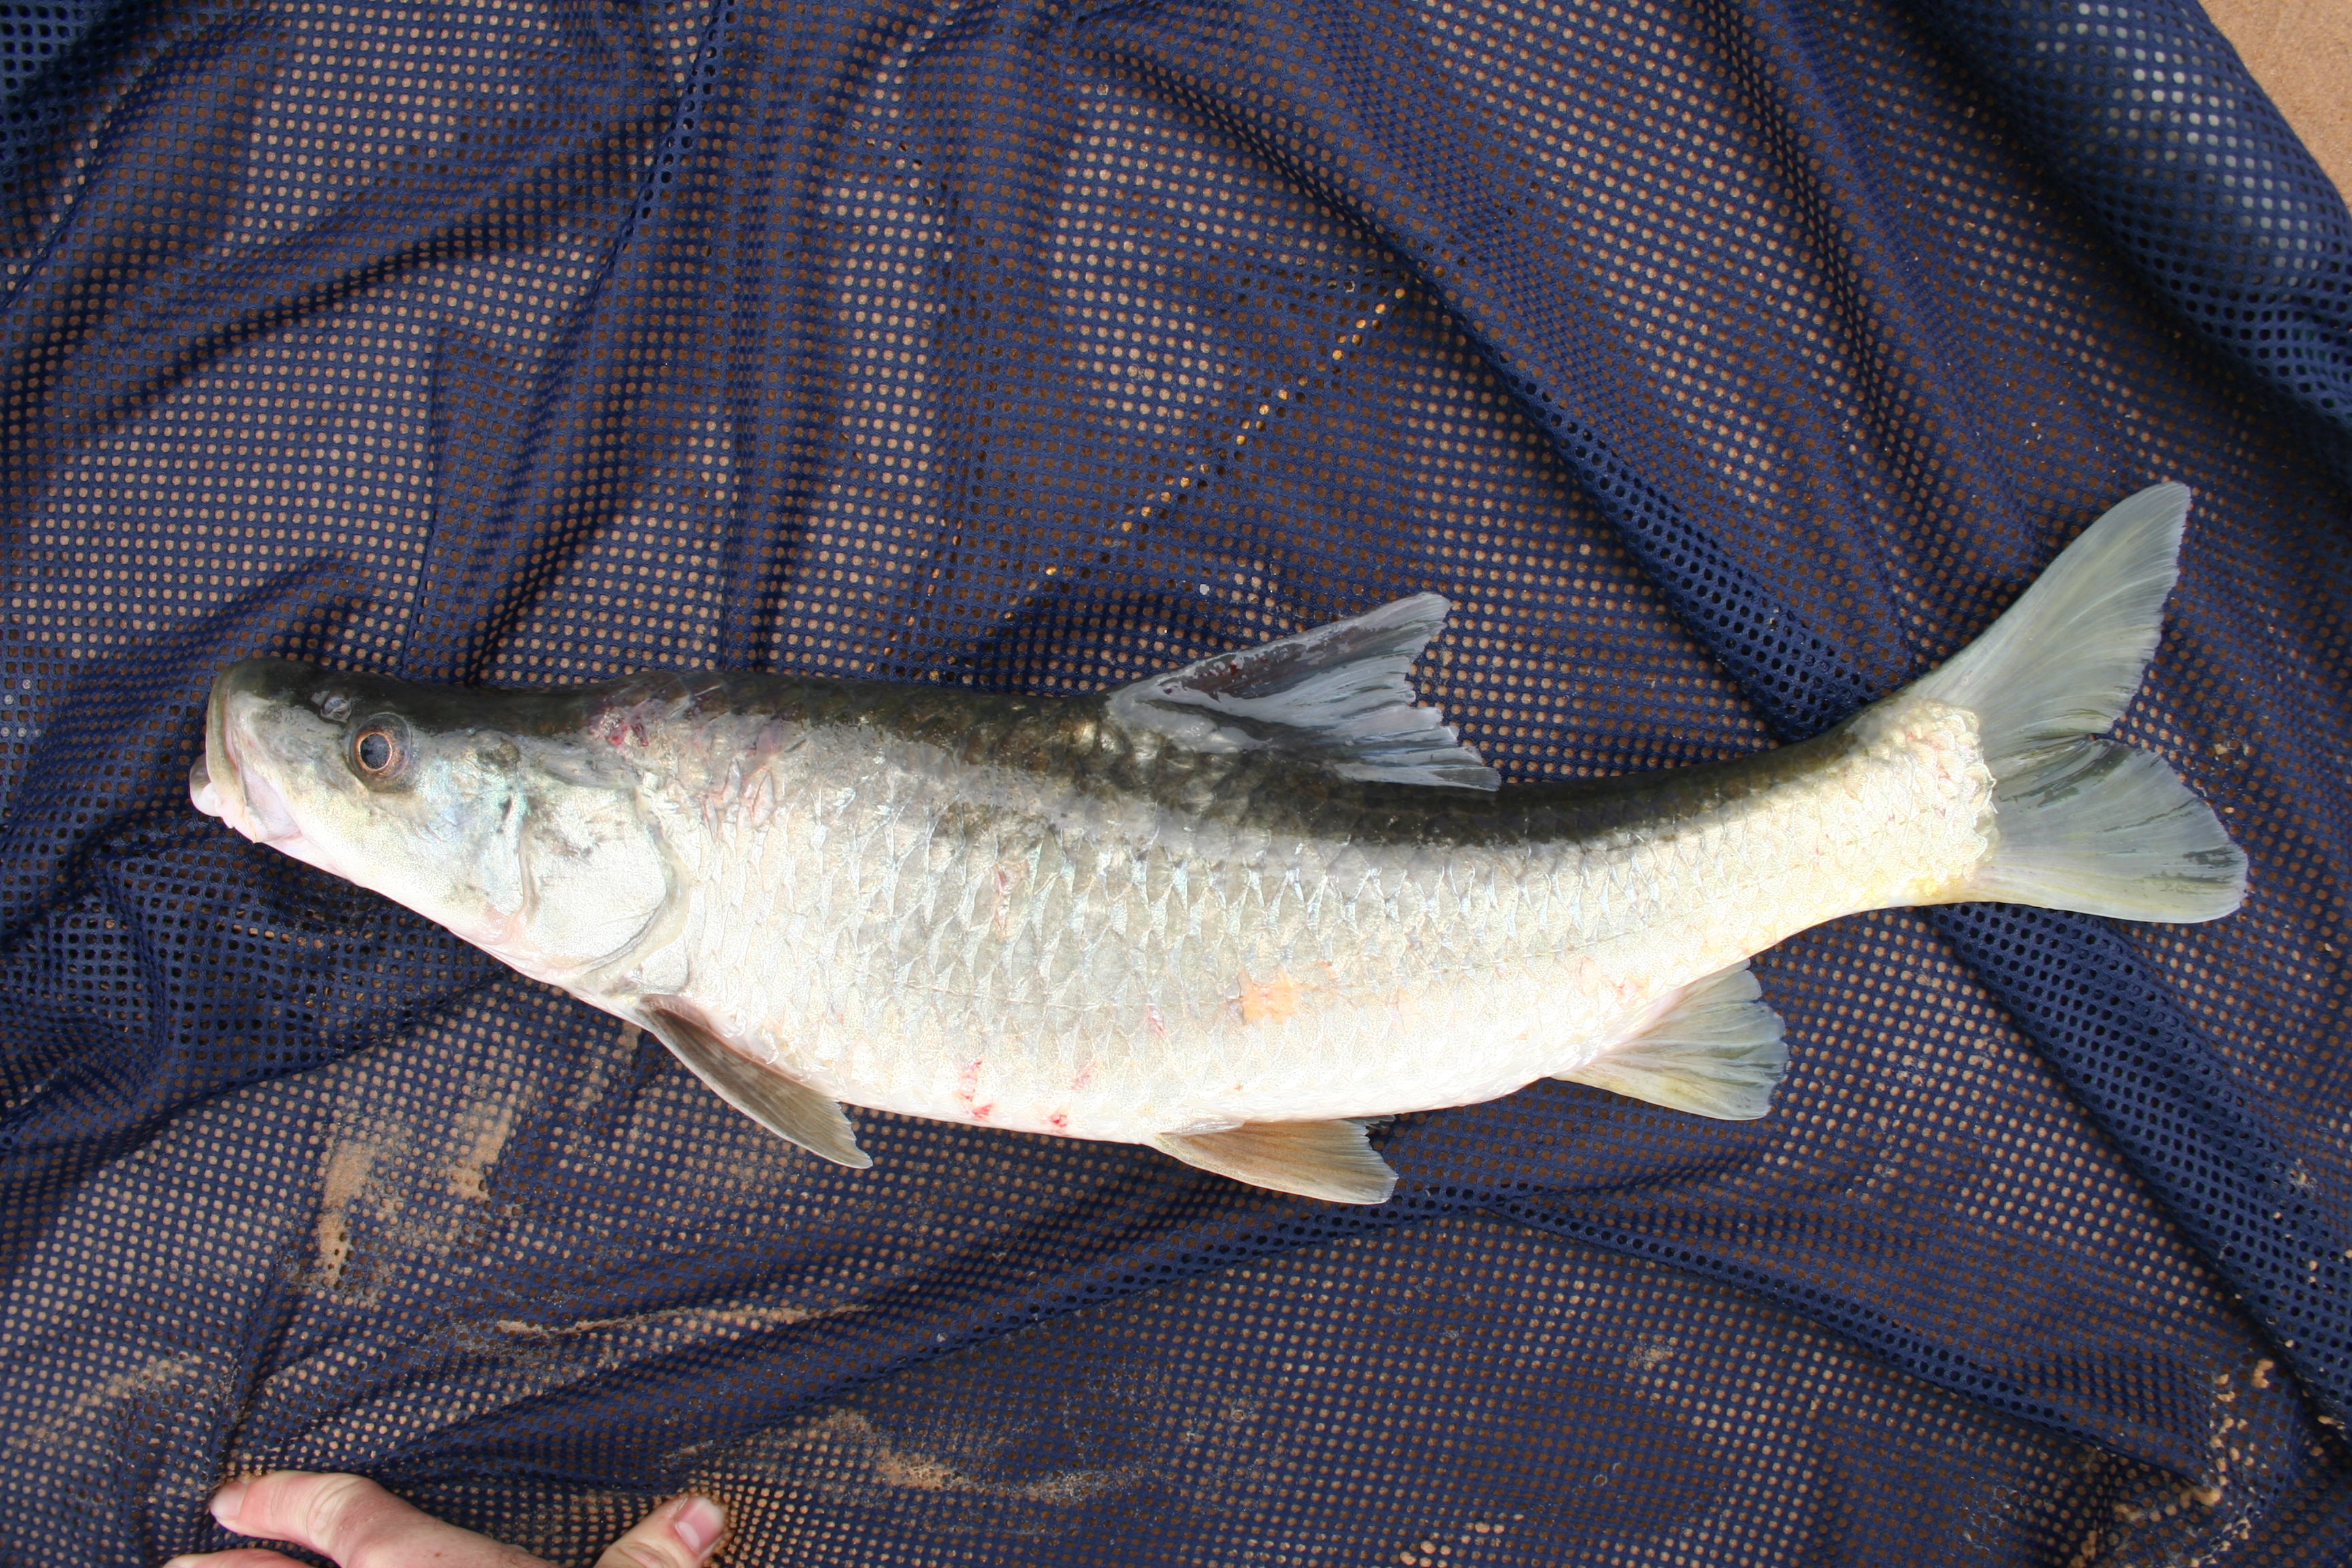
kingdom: Animalia
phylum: Chordata
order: Cypriniformes
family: Cyprinidae
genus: Labeobarbus
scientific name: Labeobarbus
